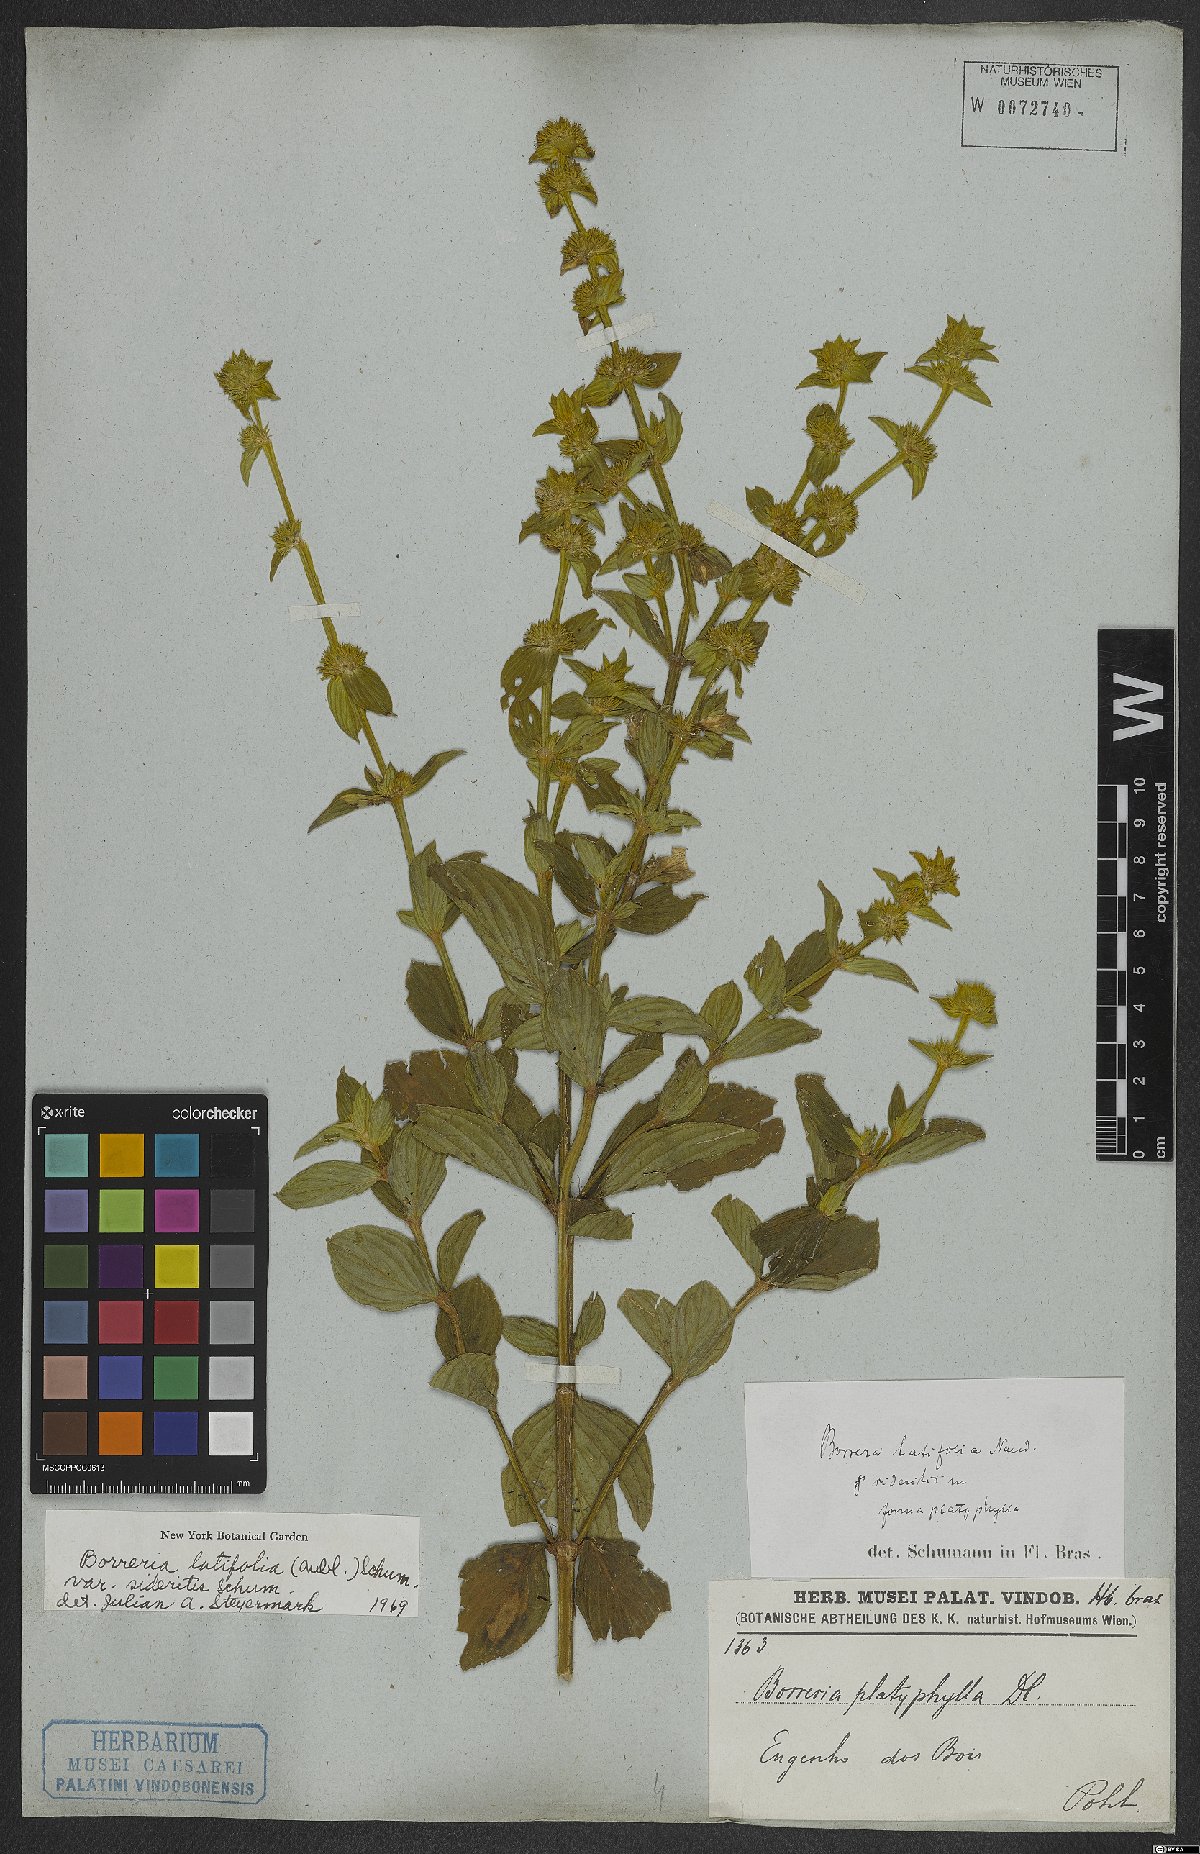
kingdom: Plantae
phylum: Tracheophyta
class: Magnoliopsida
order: Gentianales
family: Rubiaceae
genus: Spermacoce
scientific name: Spermacoce latifolia
